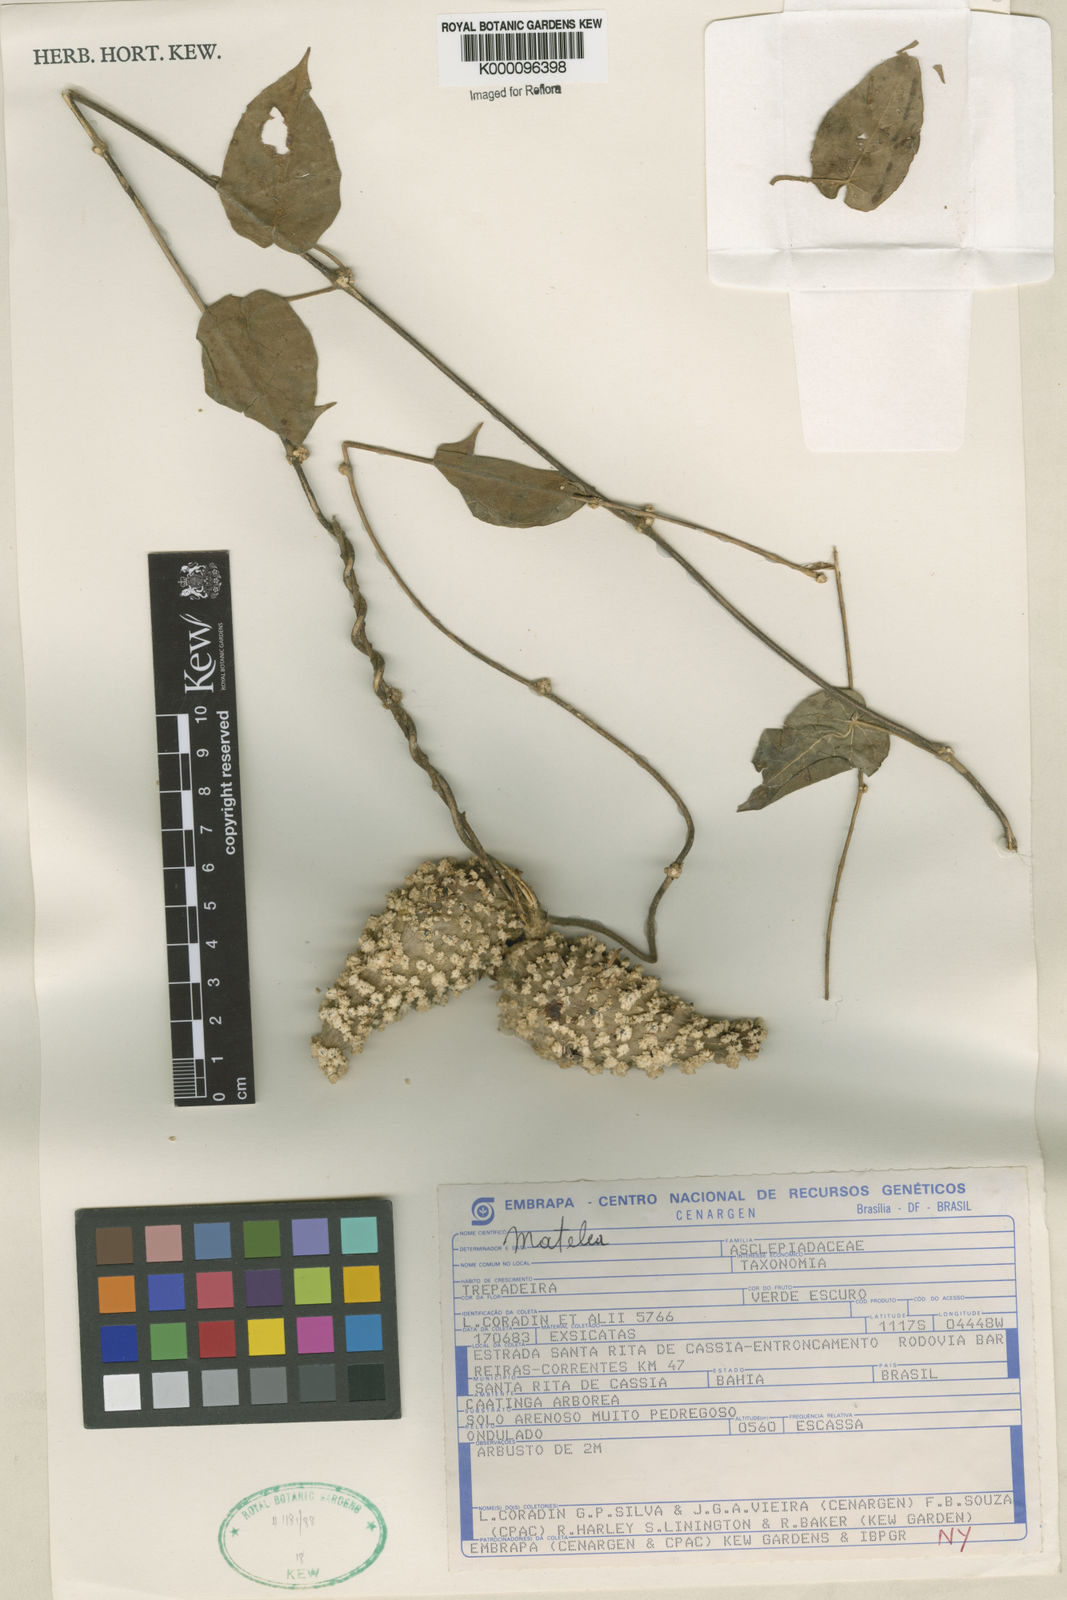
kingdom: Plantae
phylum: Tracheophyta
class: Magnoliopsida
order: Gentianales
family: Apocynaceae
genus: Matelea
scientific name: Matelea
